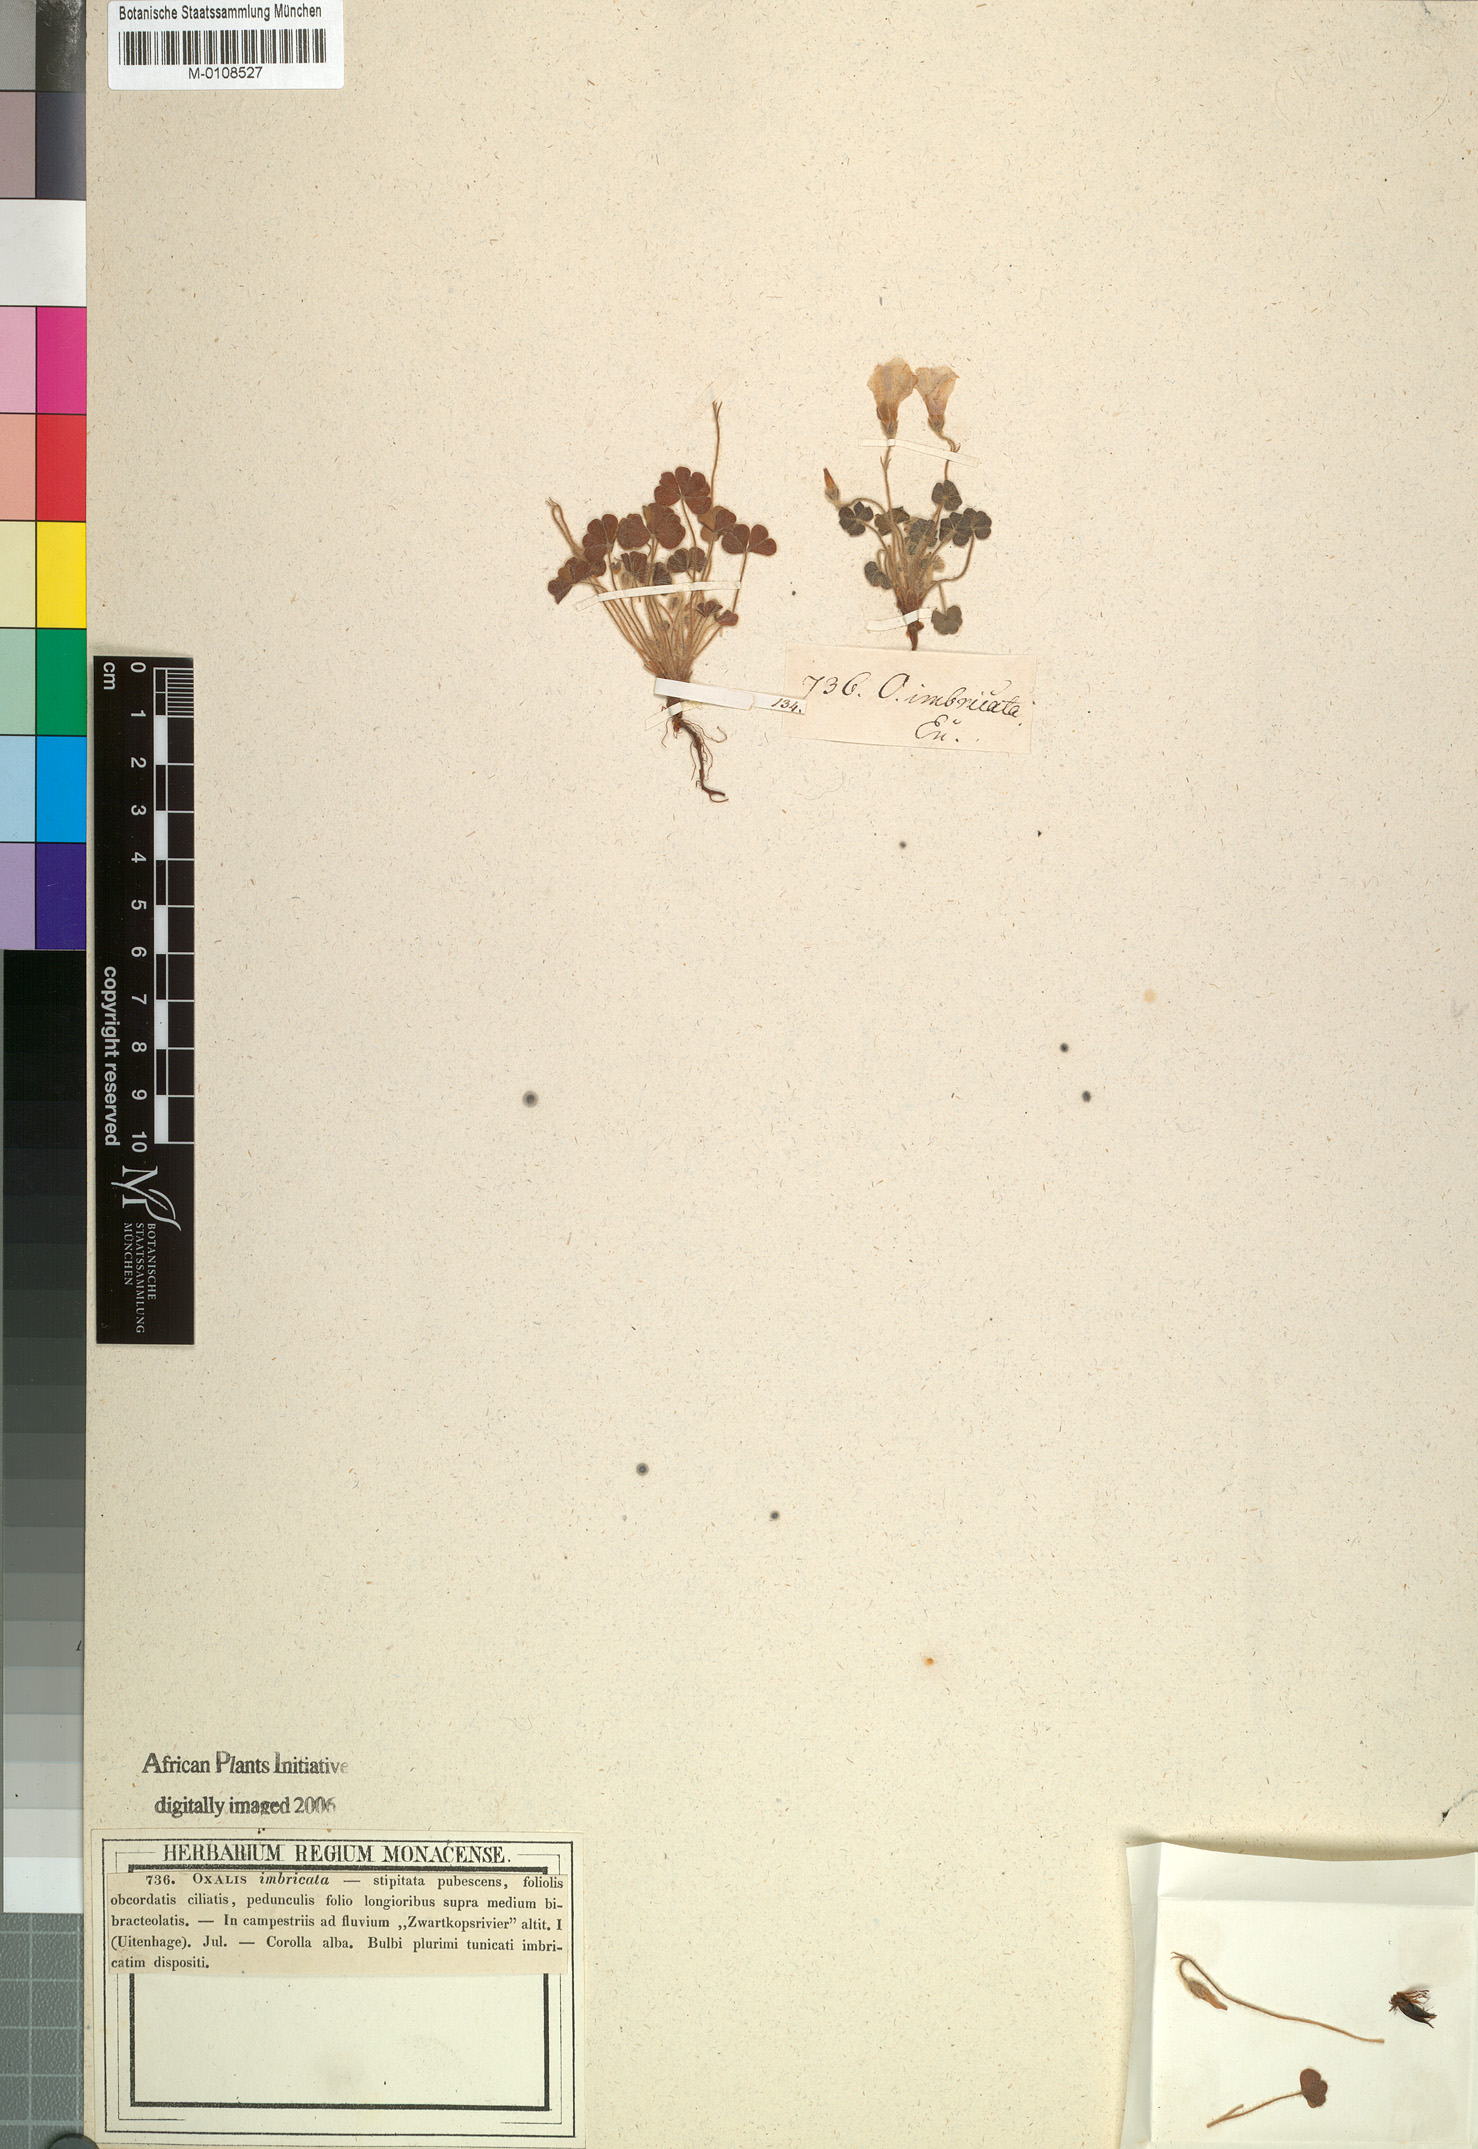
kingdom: Plantae
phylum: Tracheophyta
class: Magnoliopsida
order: Oxalidales
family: Oxalidaceae
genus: Oxalis
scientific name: Oxalis imbricata
